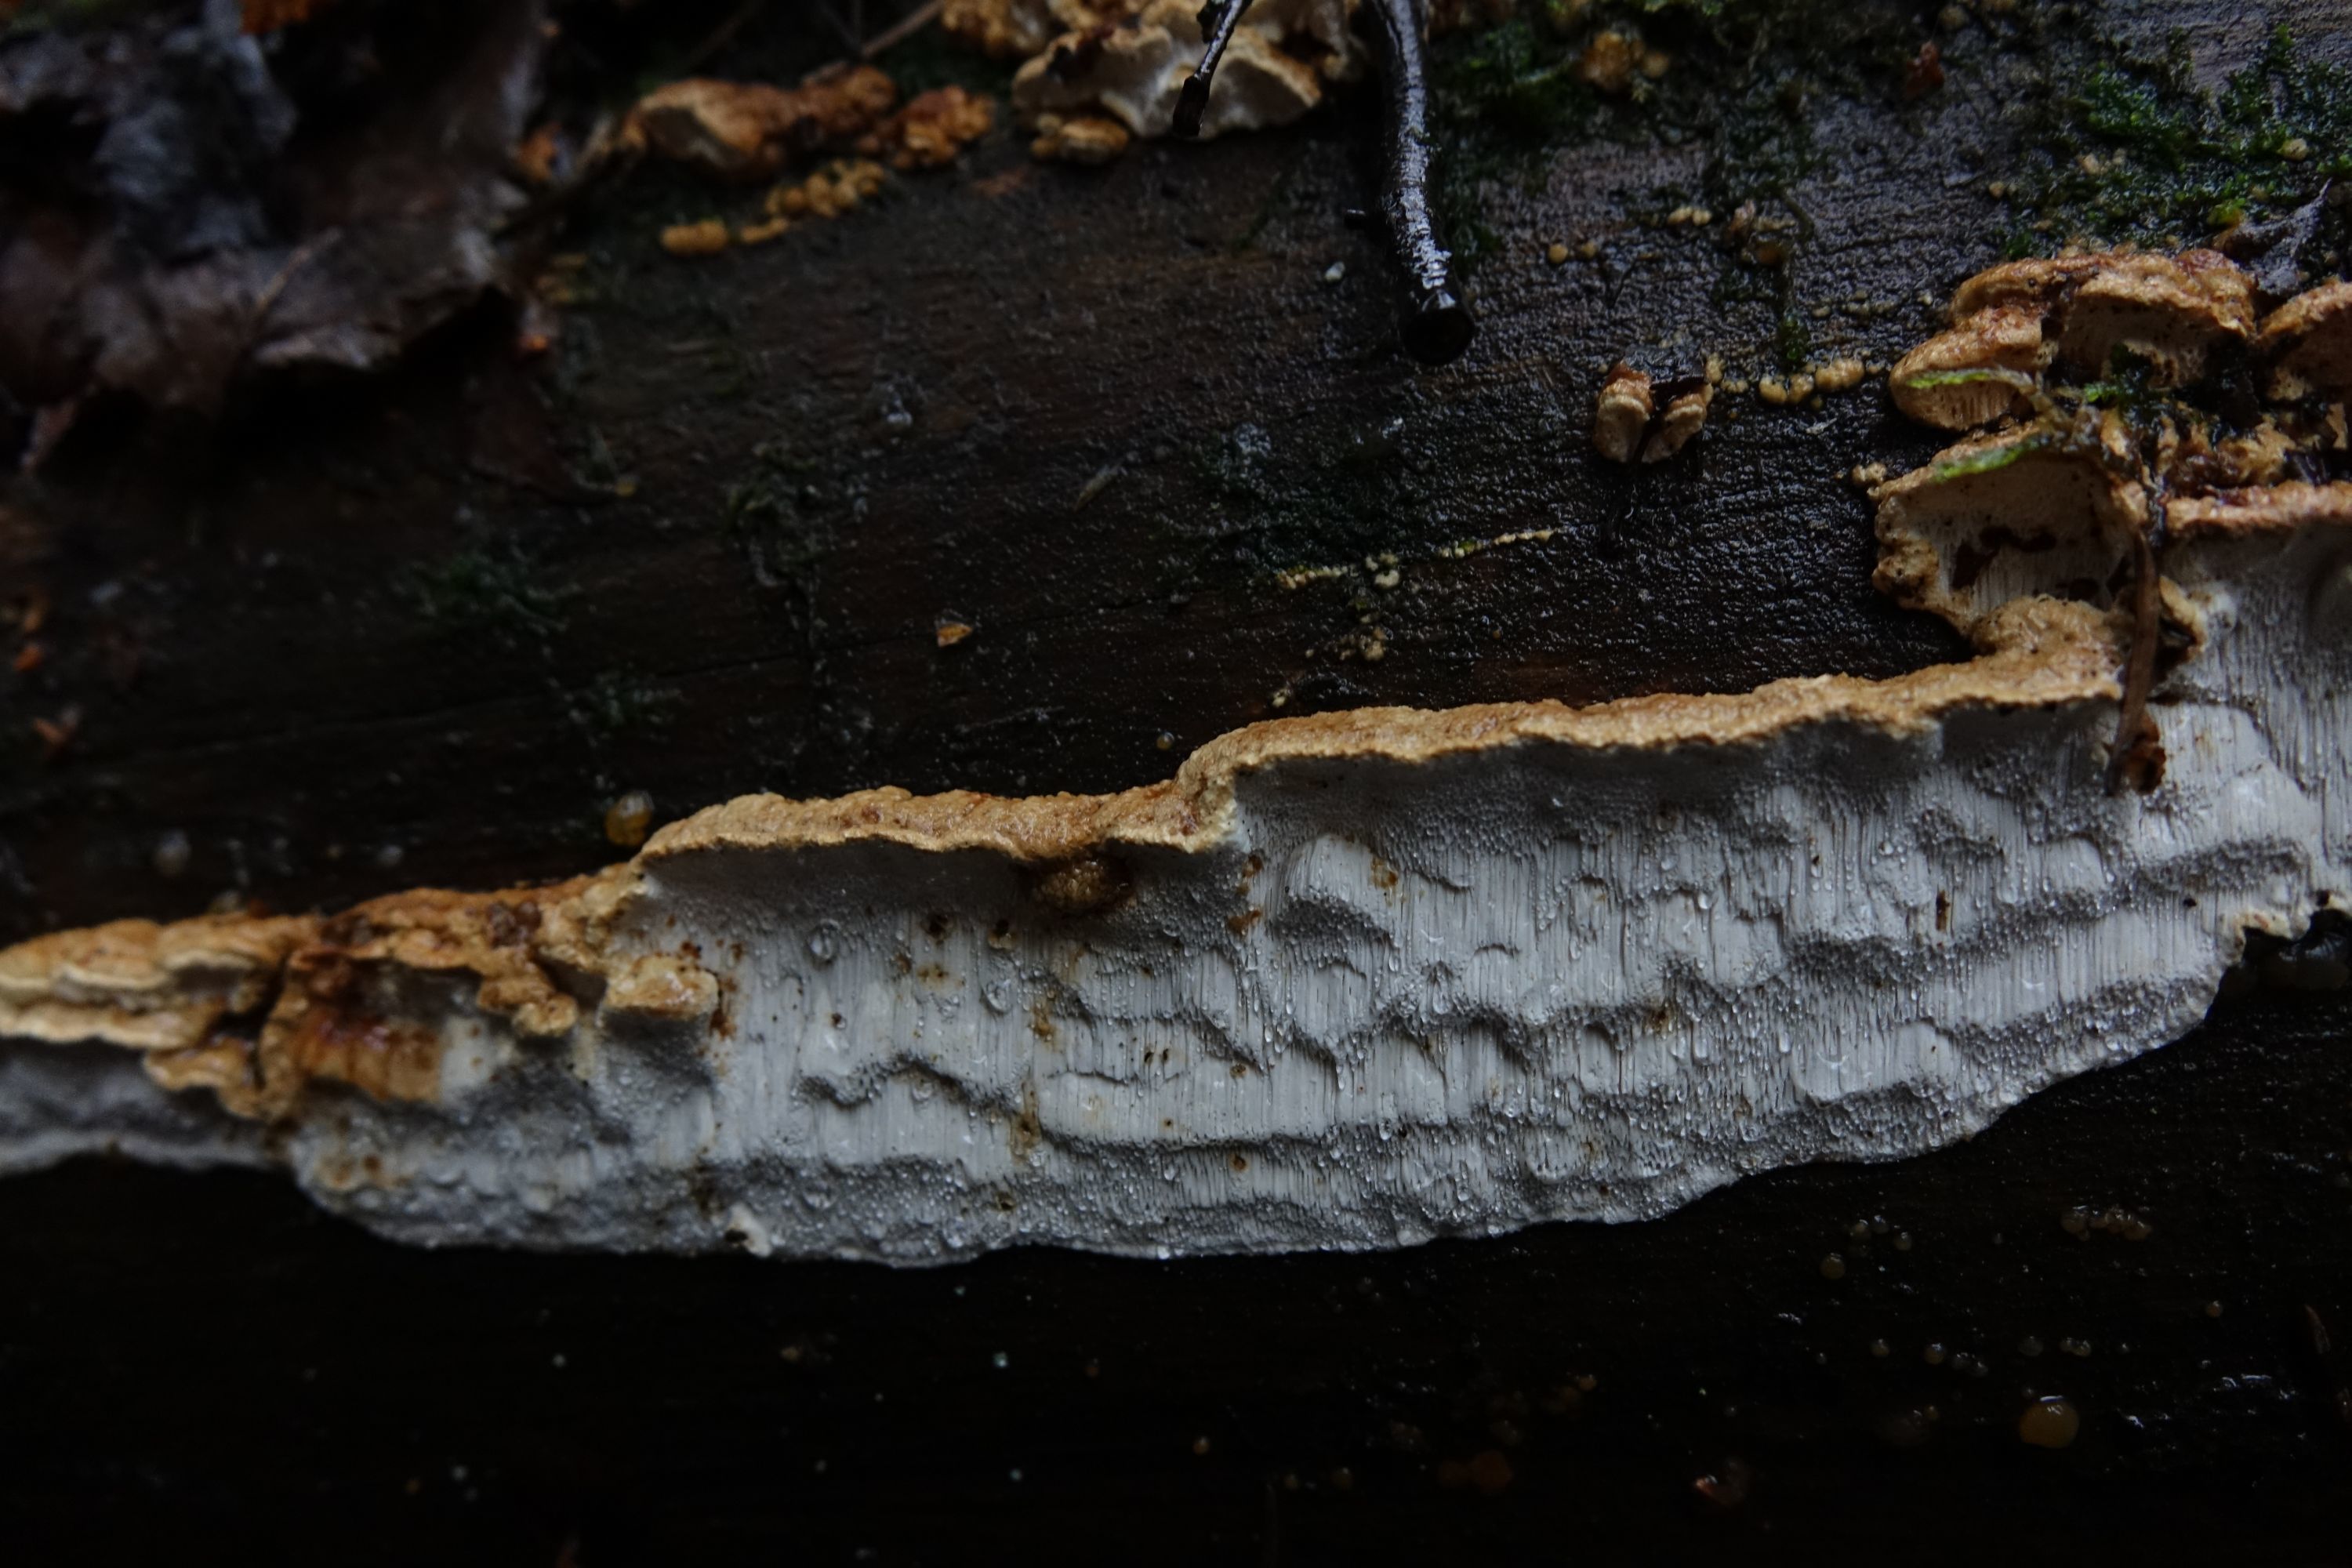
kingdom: Fungi
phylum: Basidiomycota
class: Agaricomycetes
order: Polyporales
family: Fomitopsidaceae
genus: Neoantrodia
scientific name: Neoantrodia serialis
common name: Serried porecrust
